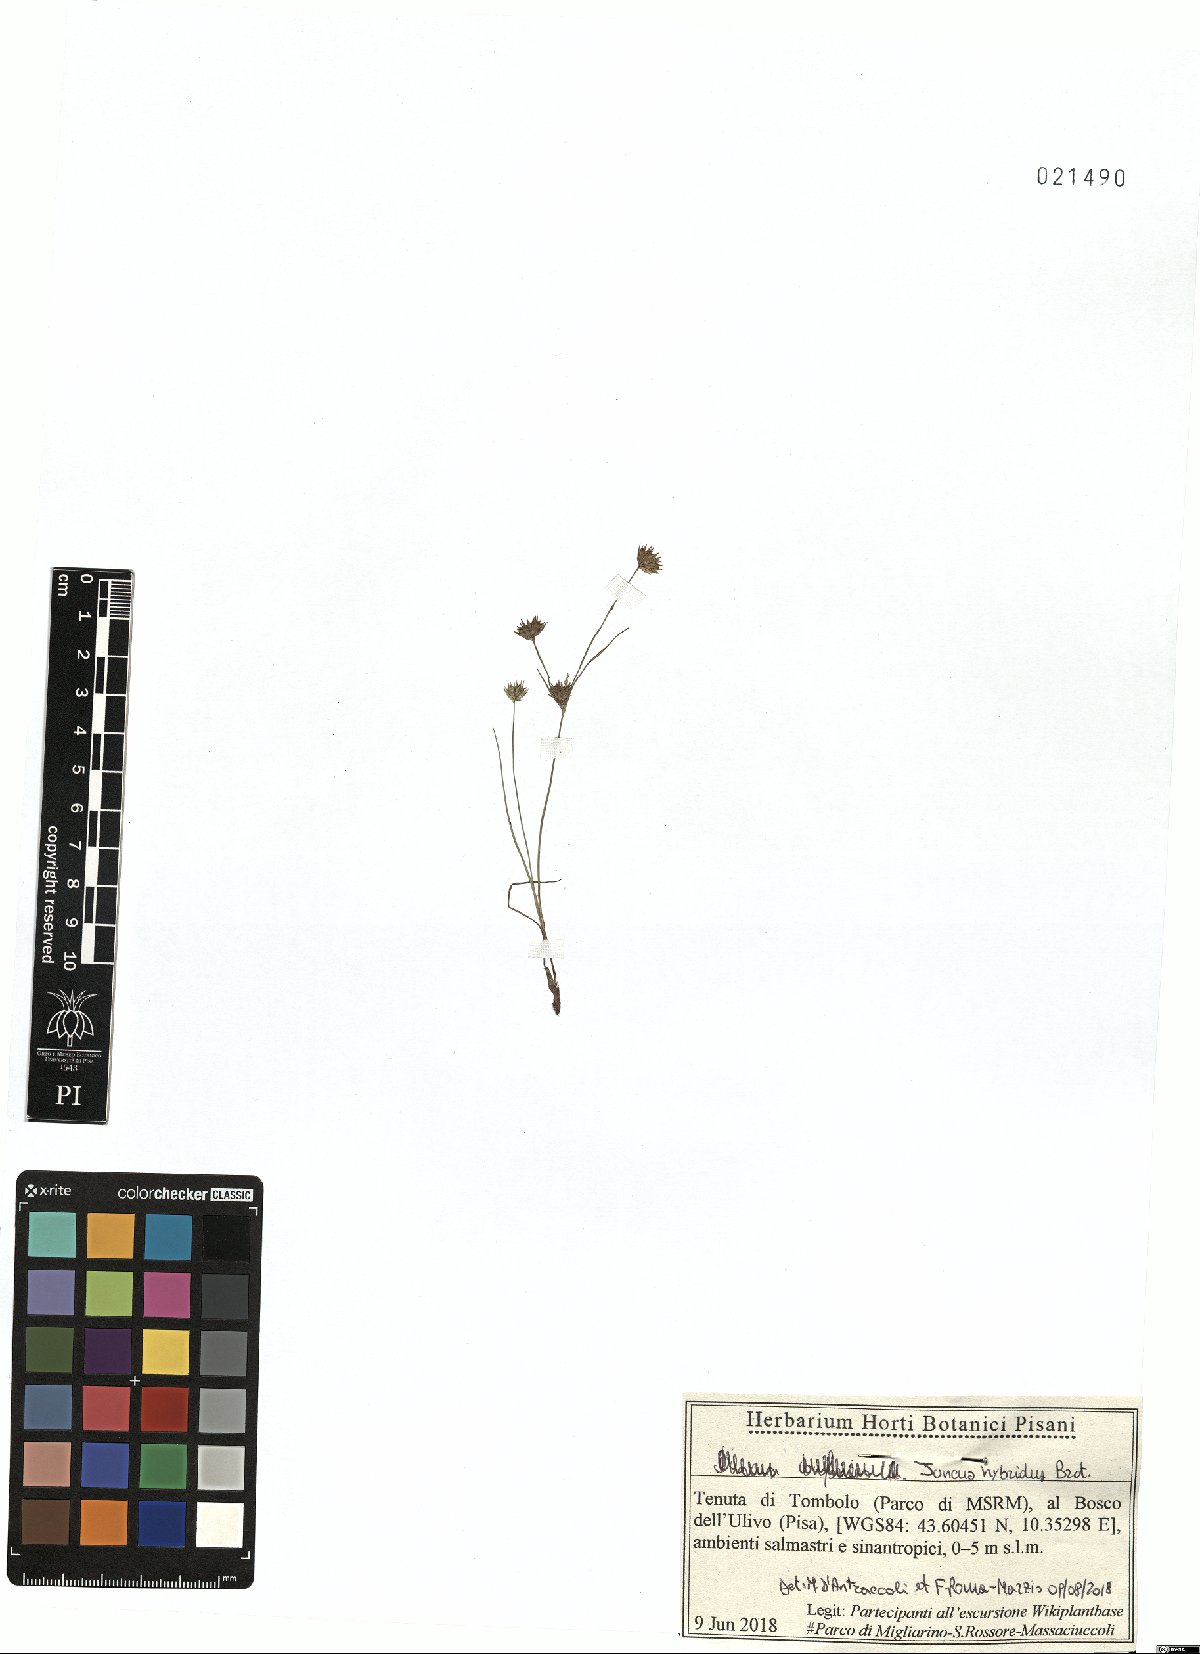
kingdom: Plantae
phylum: Tracheophyta
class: Liliopsida
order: Poales
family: Juncaceae
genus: Juncus
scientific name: Juncus hybridus
